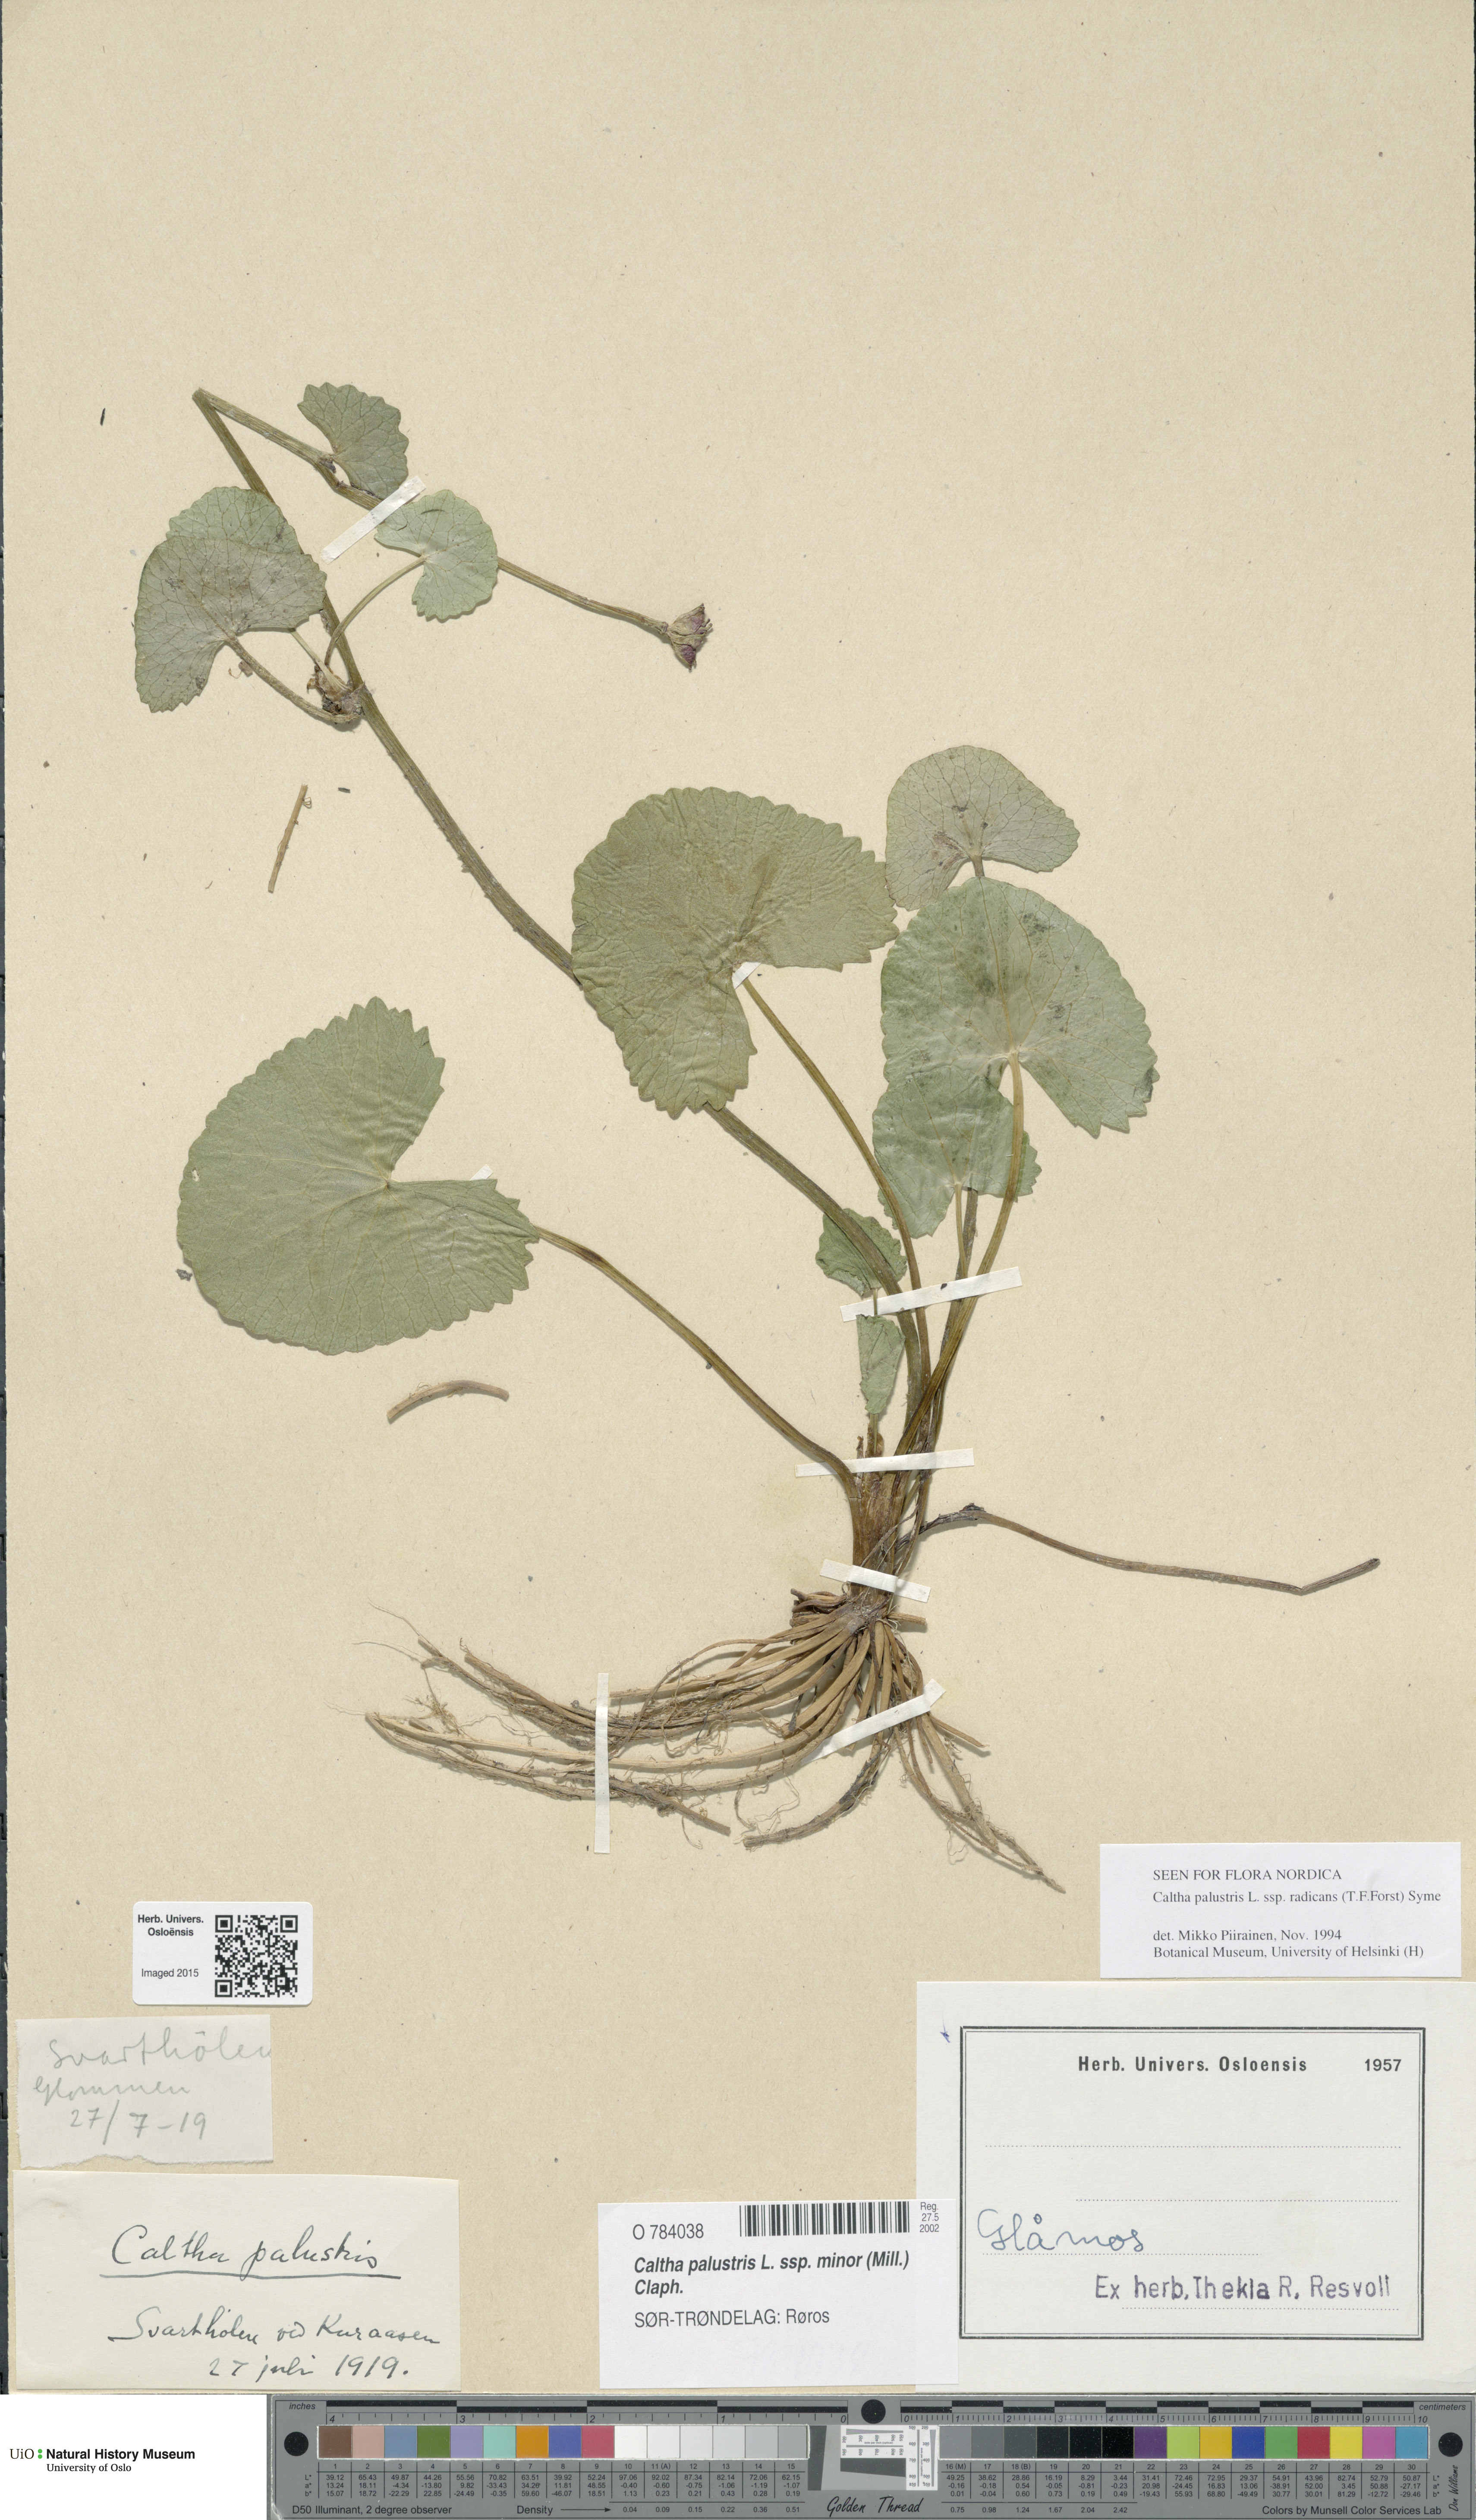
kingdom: Plantae
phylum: Tracheophyta
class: Magnoliopsida
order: Ranunculales
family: Ranunculaceae
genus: Caltha
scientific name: Caltha palustris
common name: Marsh marigold
